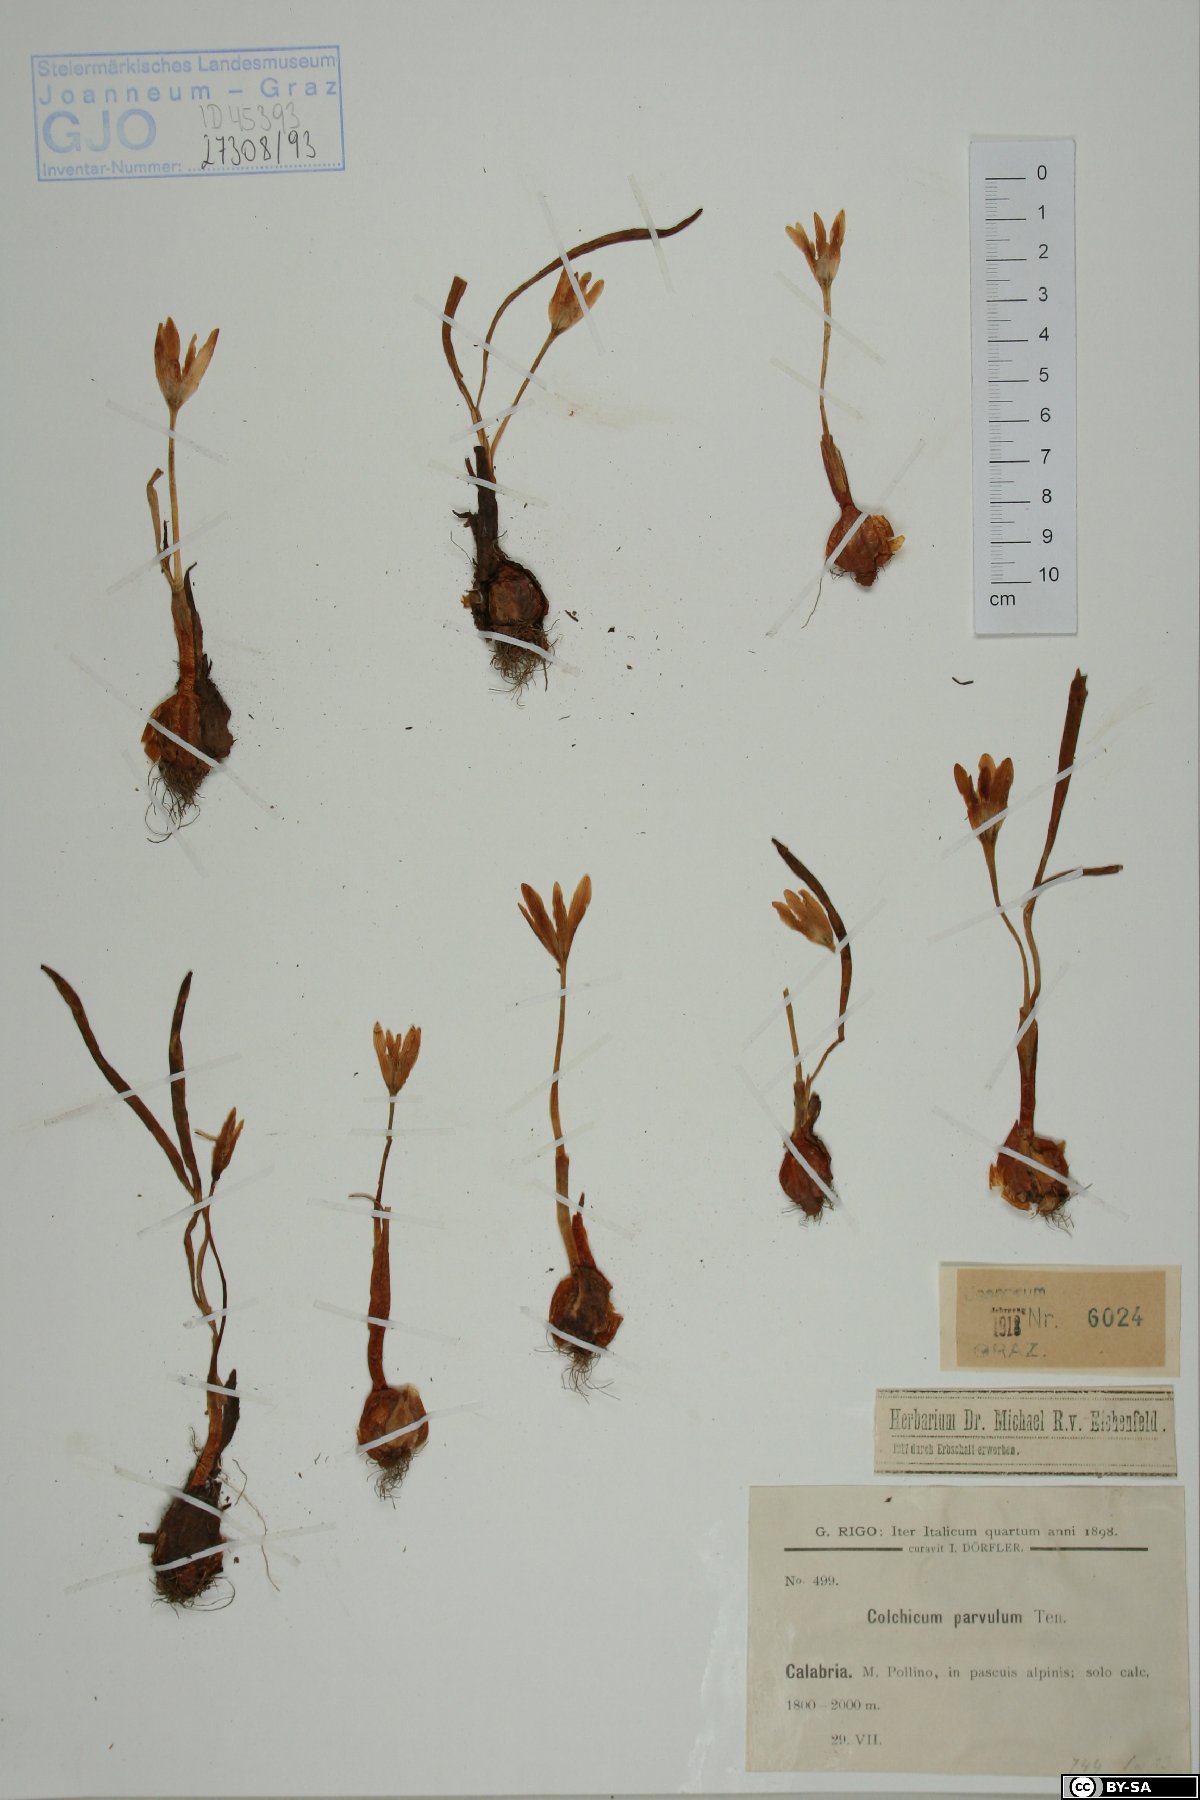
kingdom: Plantae
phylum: Tracheophyta
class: Liliopsida
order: Liliales
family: Colchicaceae
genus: Colchicum
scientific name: Colchicum alpinum
